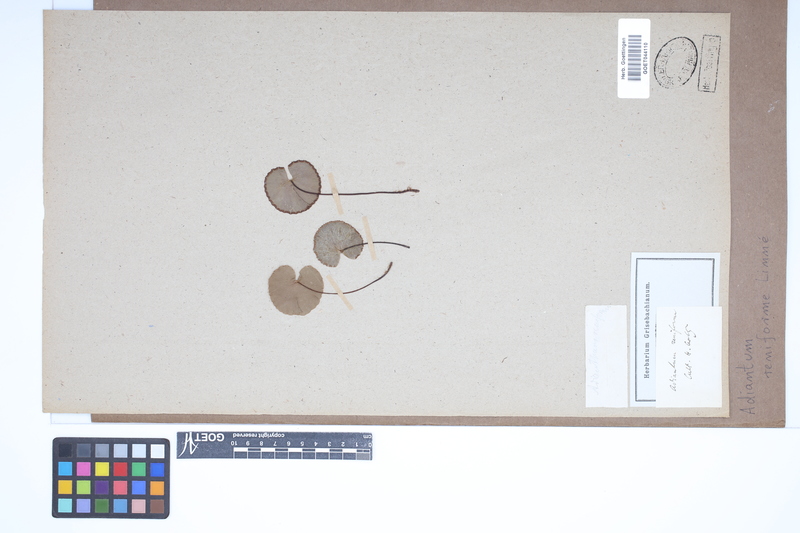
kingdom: Plantae
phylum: Tracheophyta
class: Polypodiopsida
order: Polypodiales
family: Pteridaceae
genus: Adiantum
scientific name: Adiantum reniforme
